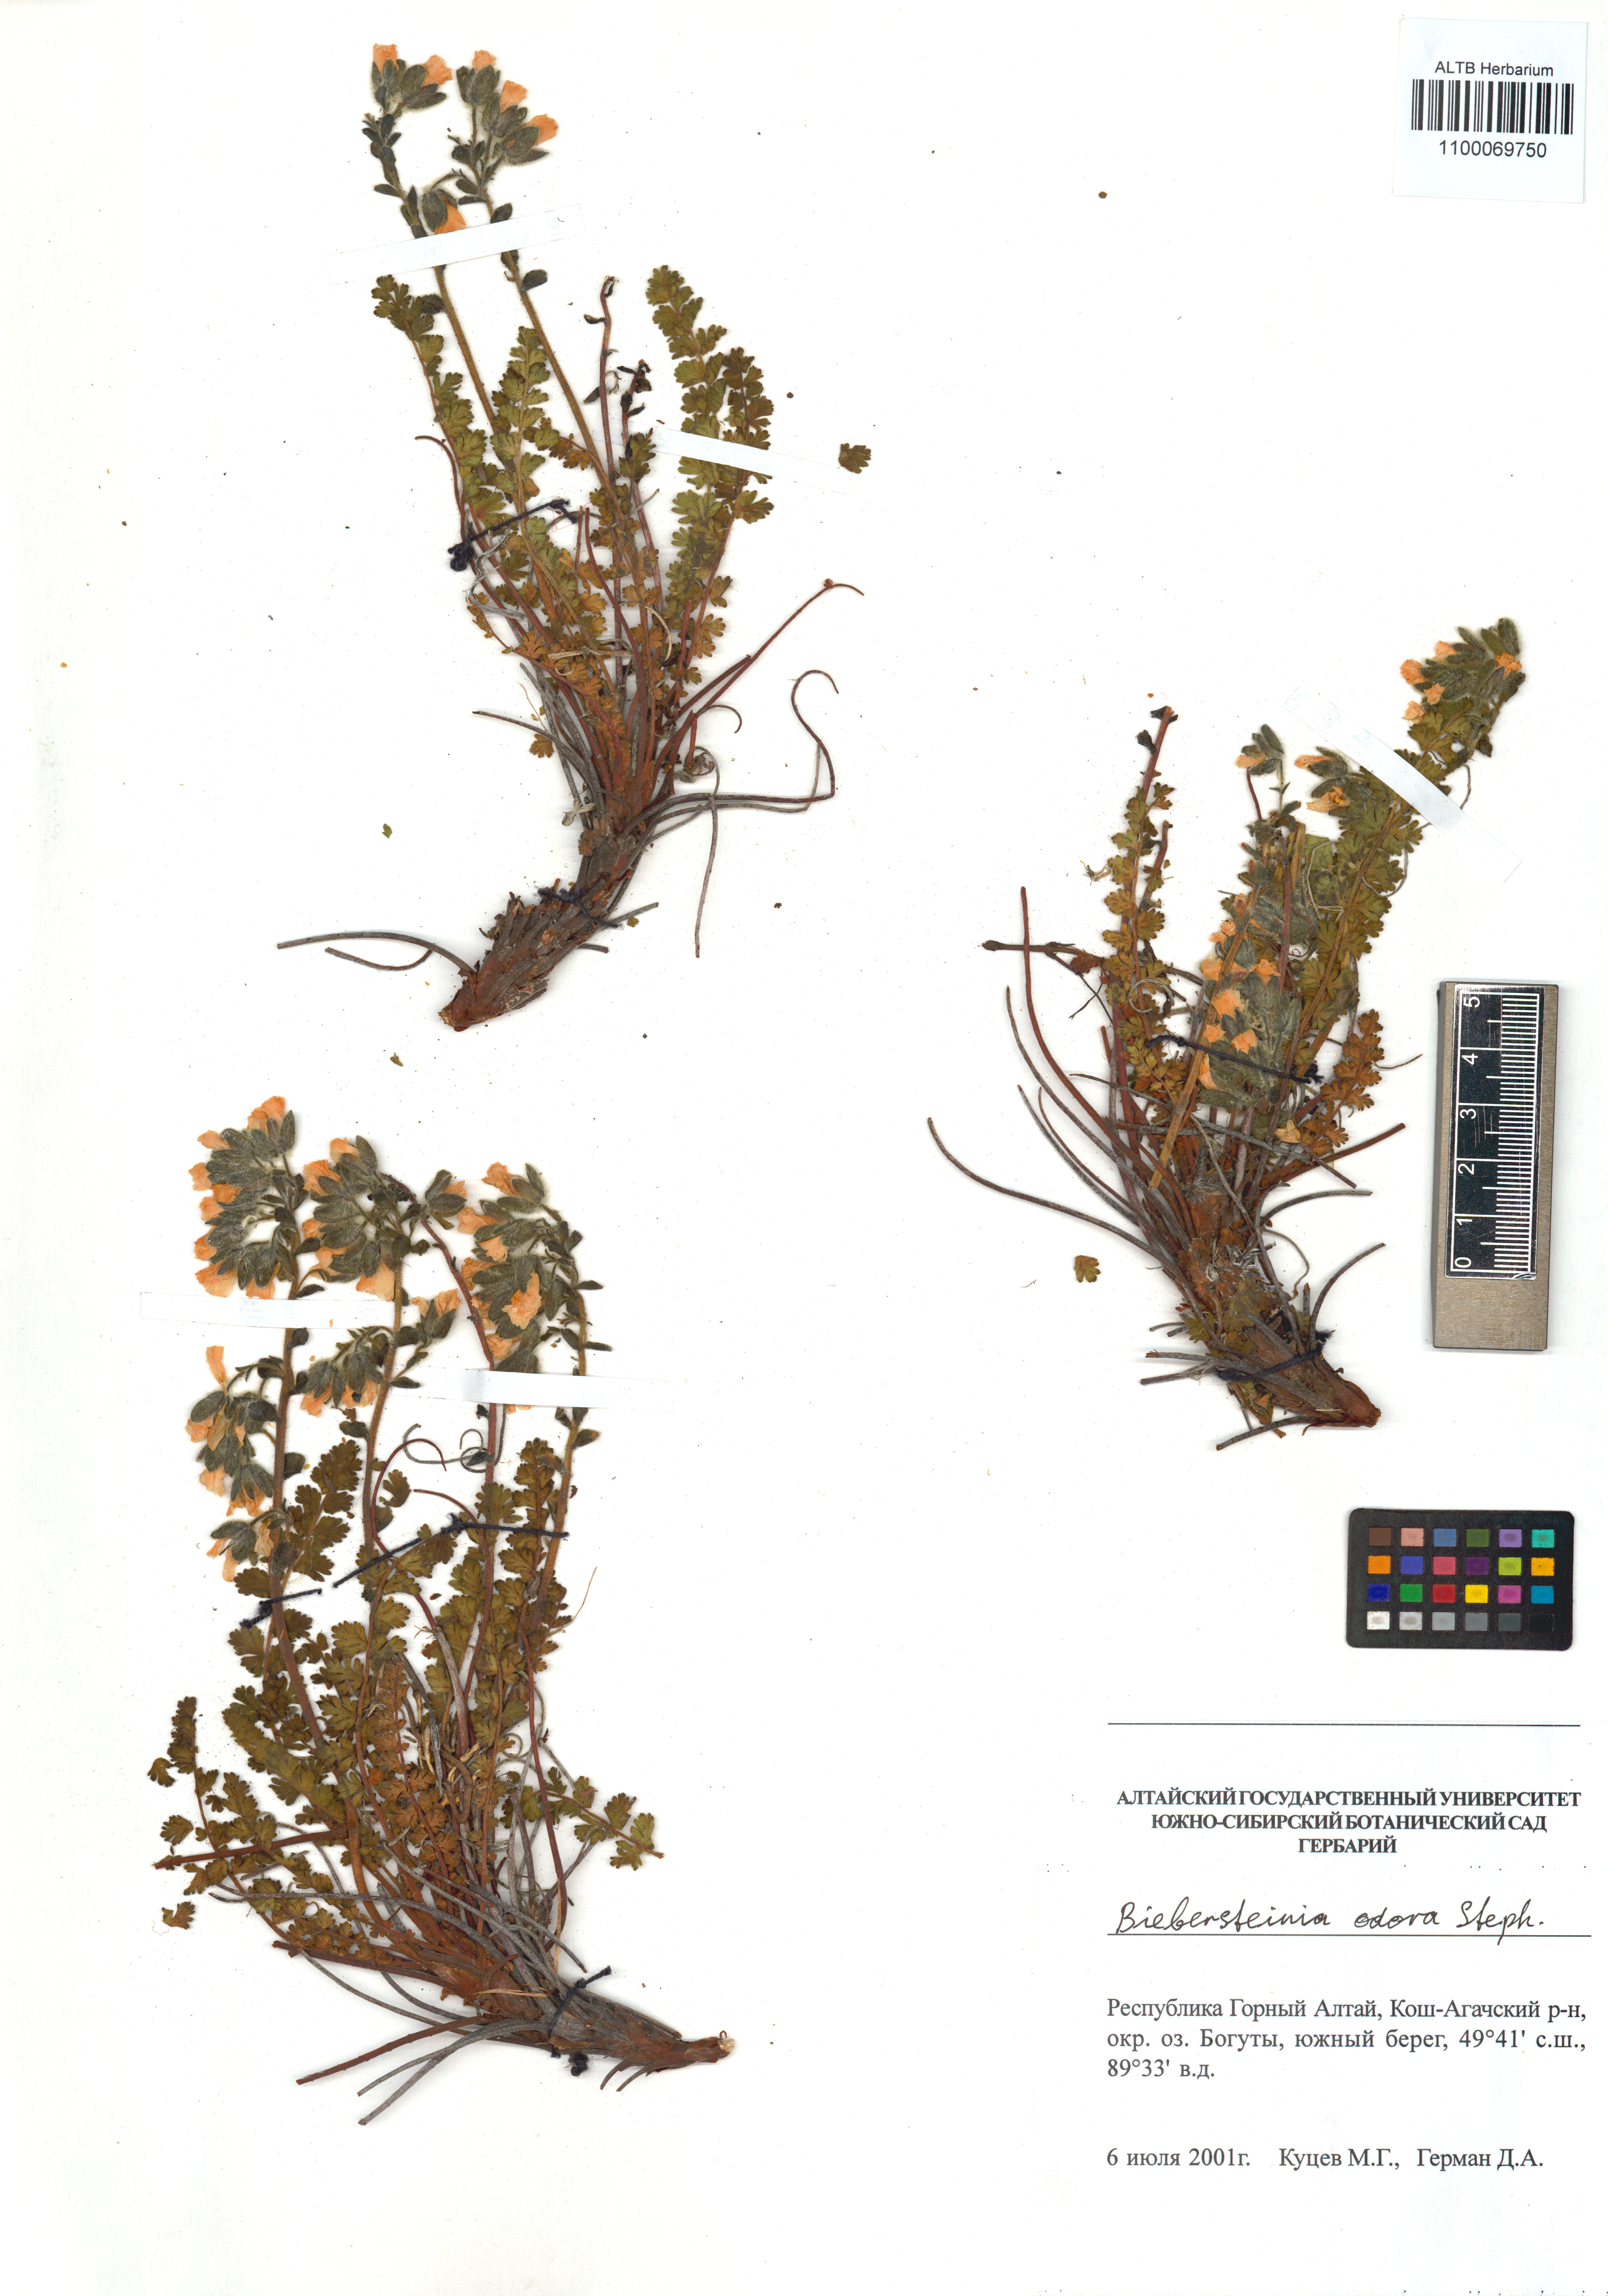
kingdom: Plantae
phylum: Tracheophyta
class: Magnoliopsida
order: Sapindales
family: Biebersteiniaceae
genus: Biebersteinia
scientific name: Biebersteinia odora
